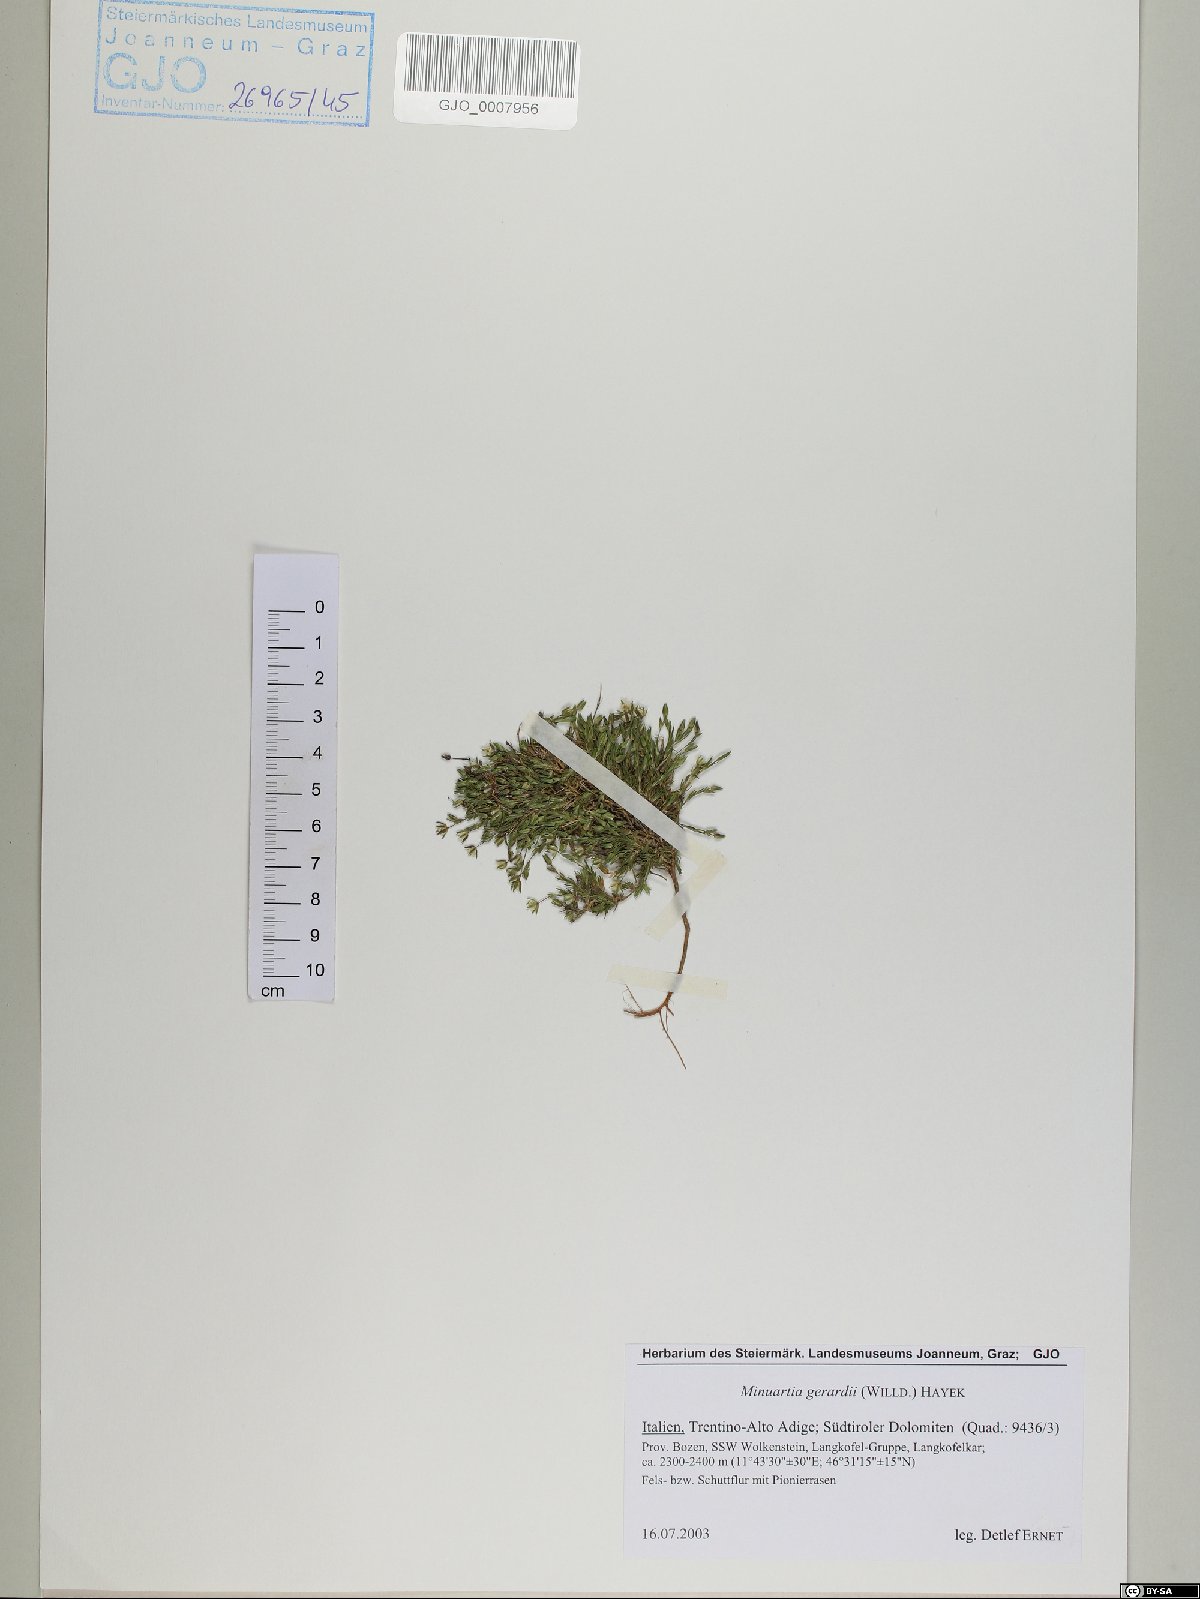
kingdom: Plantae
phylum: Tracheophyta
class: Magnoliopsida
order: Caryophyllales
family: Caryophyllaceae
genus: Sabulina
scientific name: Sabulina verna
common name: Spring sandwort
